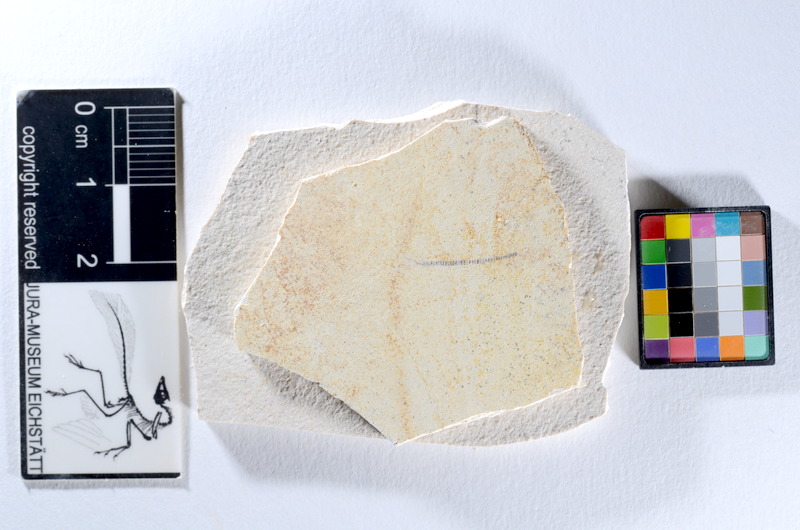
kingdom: Animalia
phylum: Chordata
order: Salmoniformes
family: Orthogonikleithridae
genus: Orthogonikleithrus
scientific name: Orthogonikleithrus hoelli
